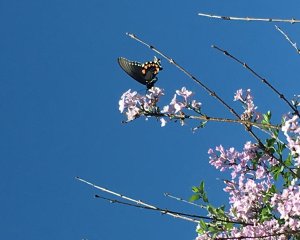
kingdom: Animalia
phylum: Arthropoda
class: Insecta
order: Lepidoptera
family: Papilionidae
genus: Battus
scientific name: Battus philenor
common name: Pipevine Swallowtail
